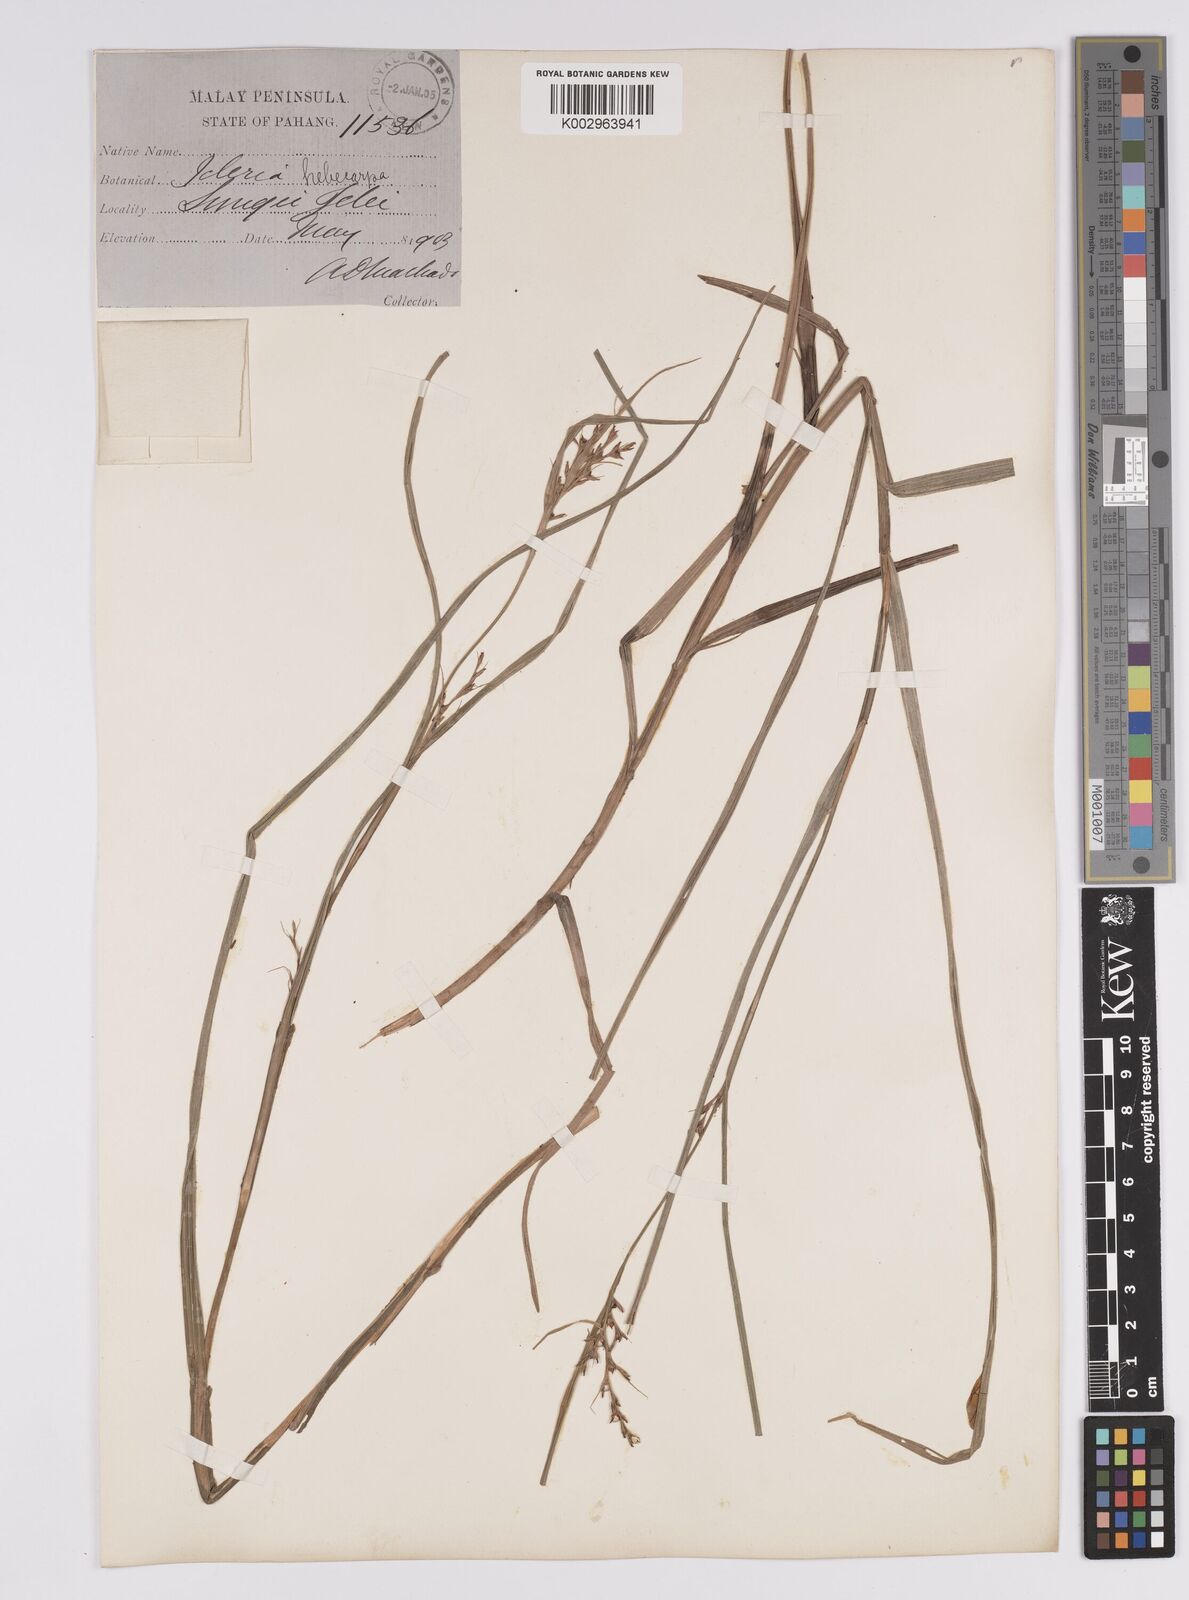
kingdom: Plantae
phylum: Tracheophyta
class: Liliopsida
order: Poales
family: Cyperaceae
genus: Scleria
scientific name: Scleria levis
